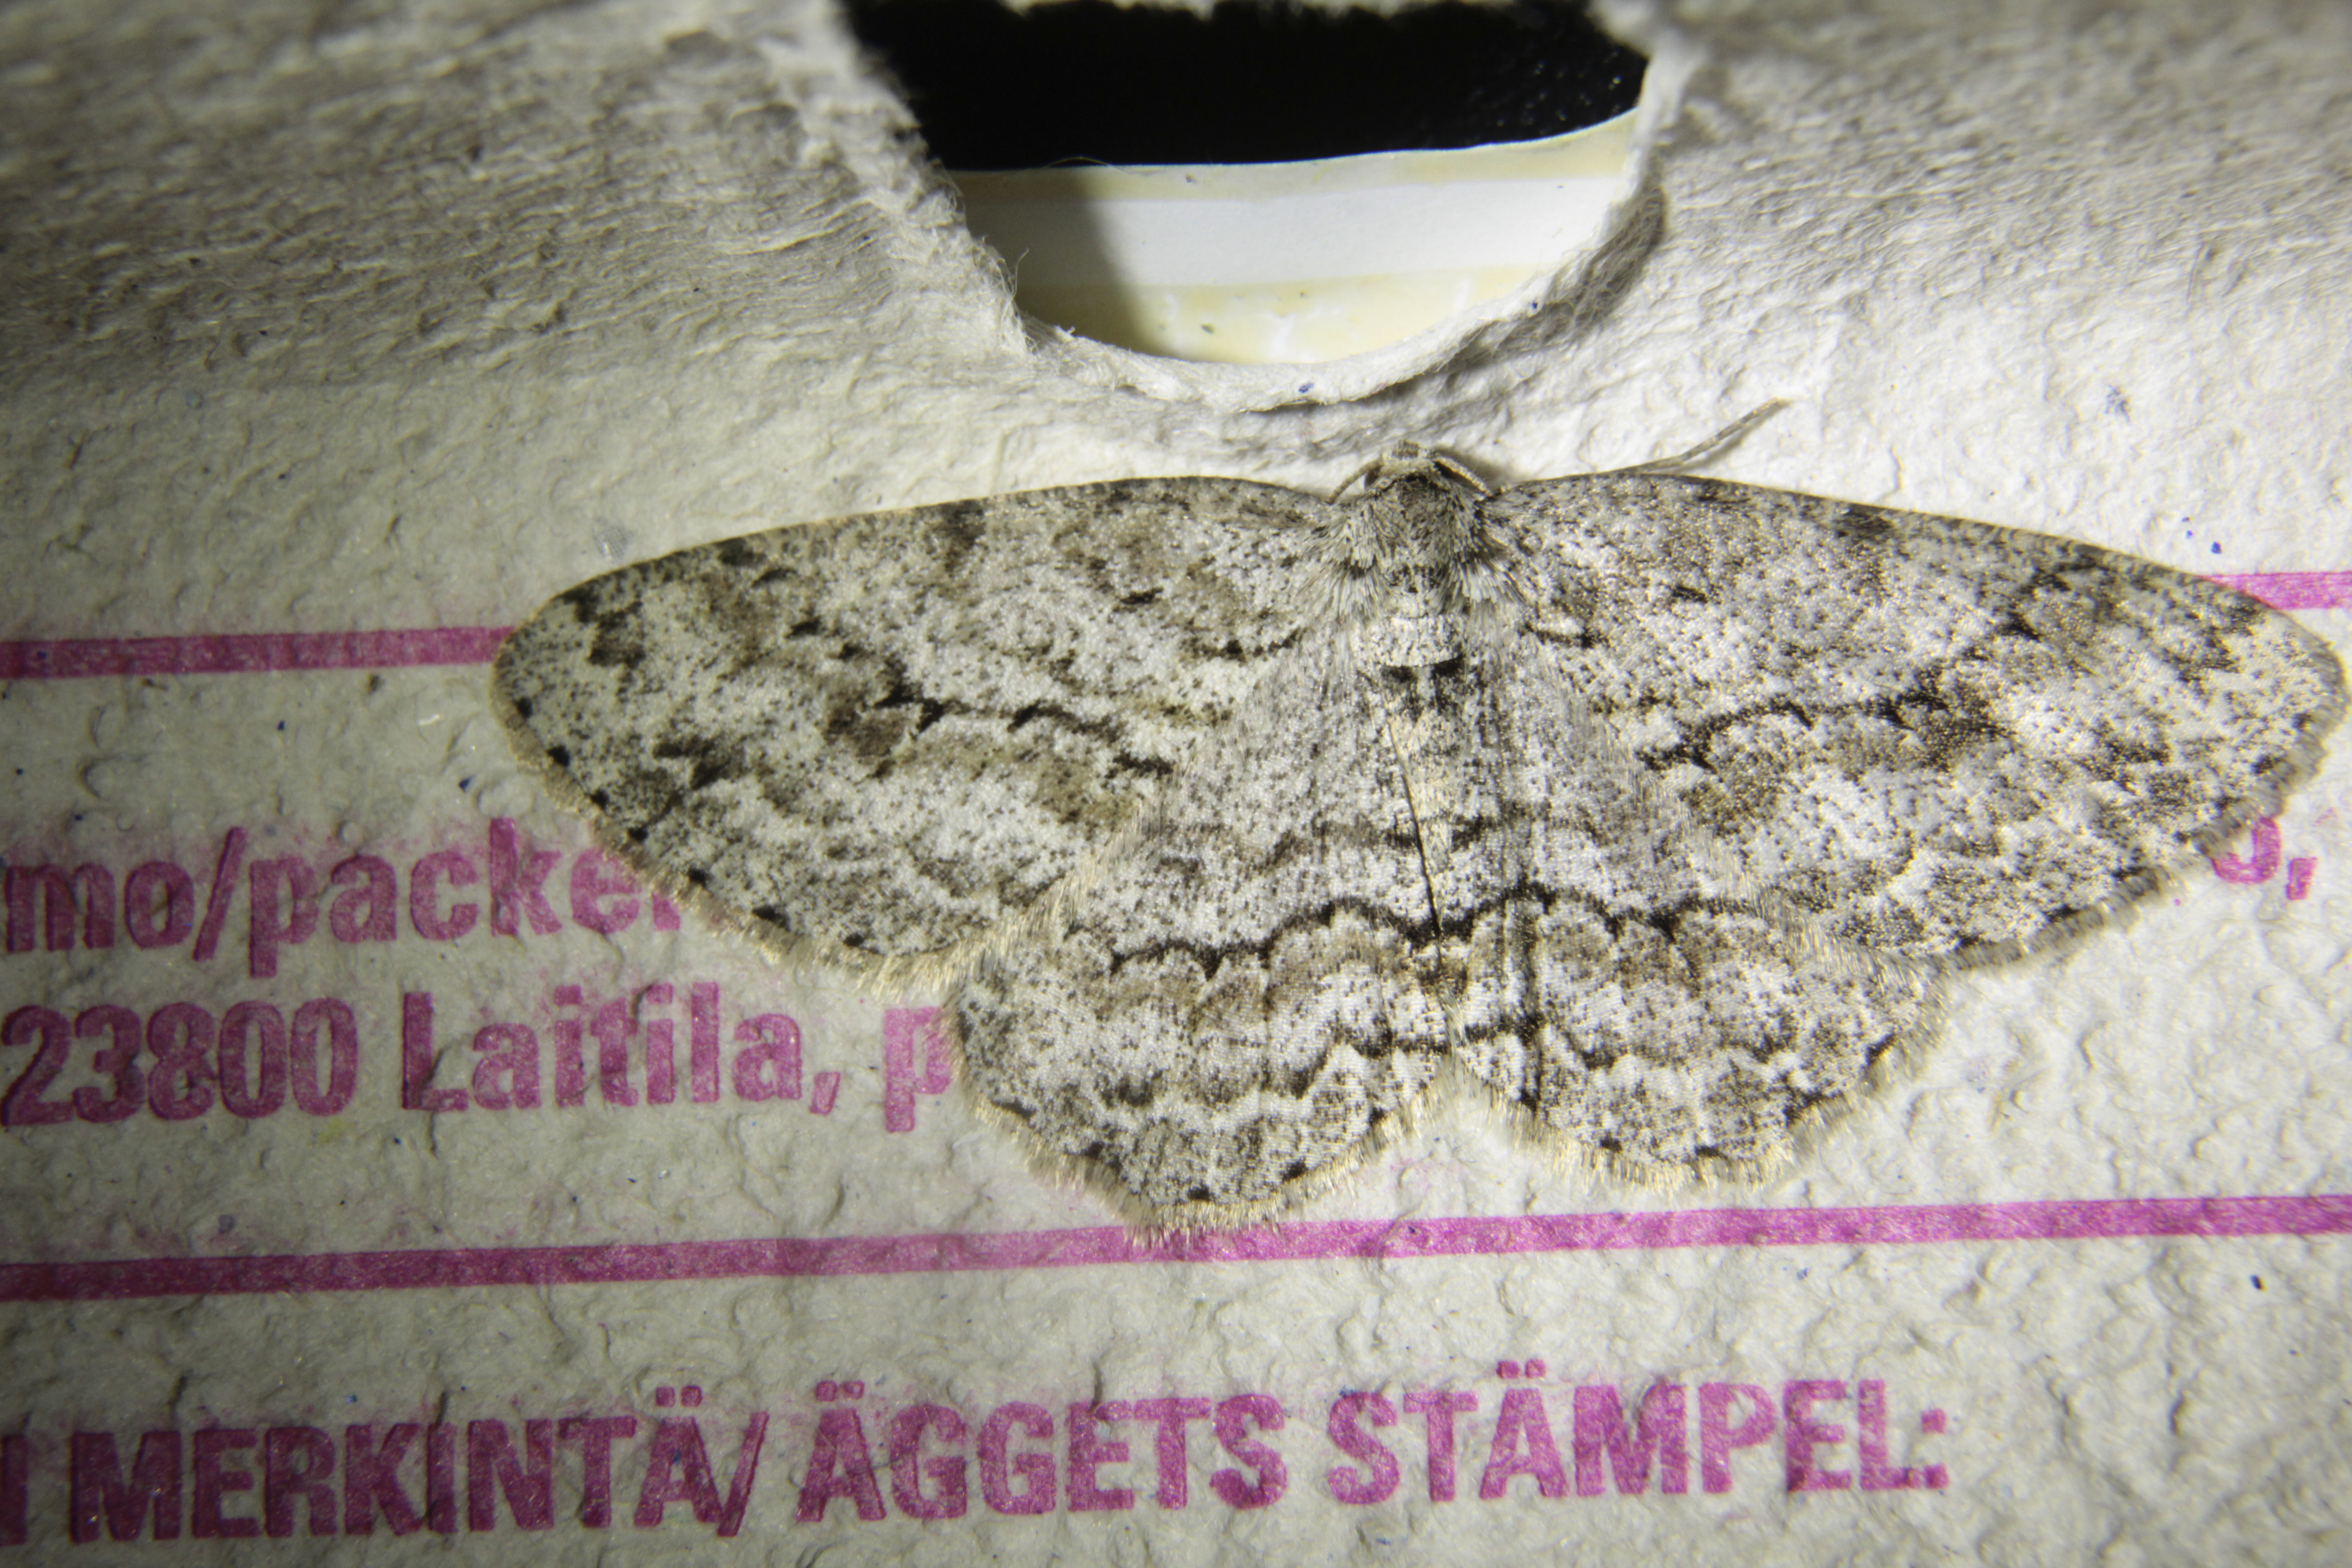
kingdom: Animalia
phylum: Arthropoda
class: Insecta
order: Lepidoptera
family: Geometridae
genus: Ectropis
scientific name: Ectropis crepuscularia
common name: Engrailed
